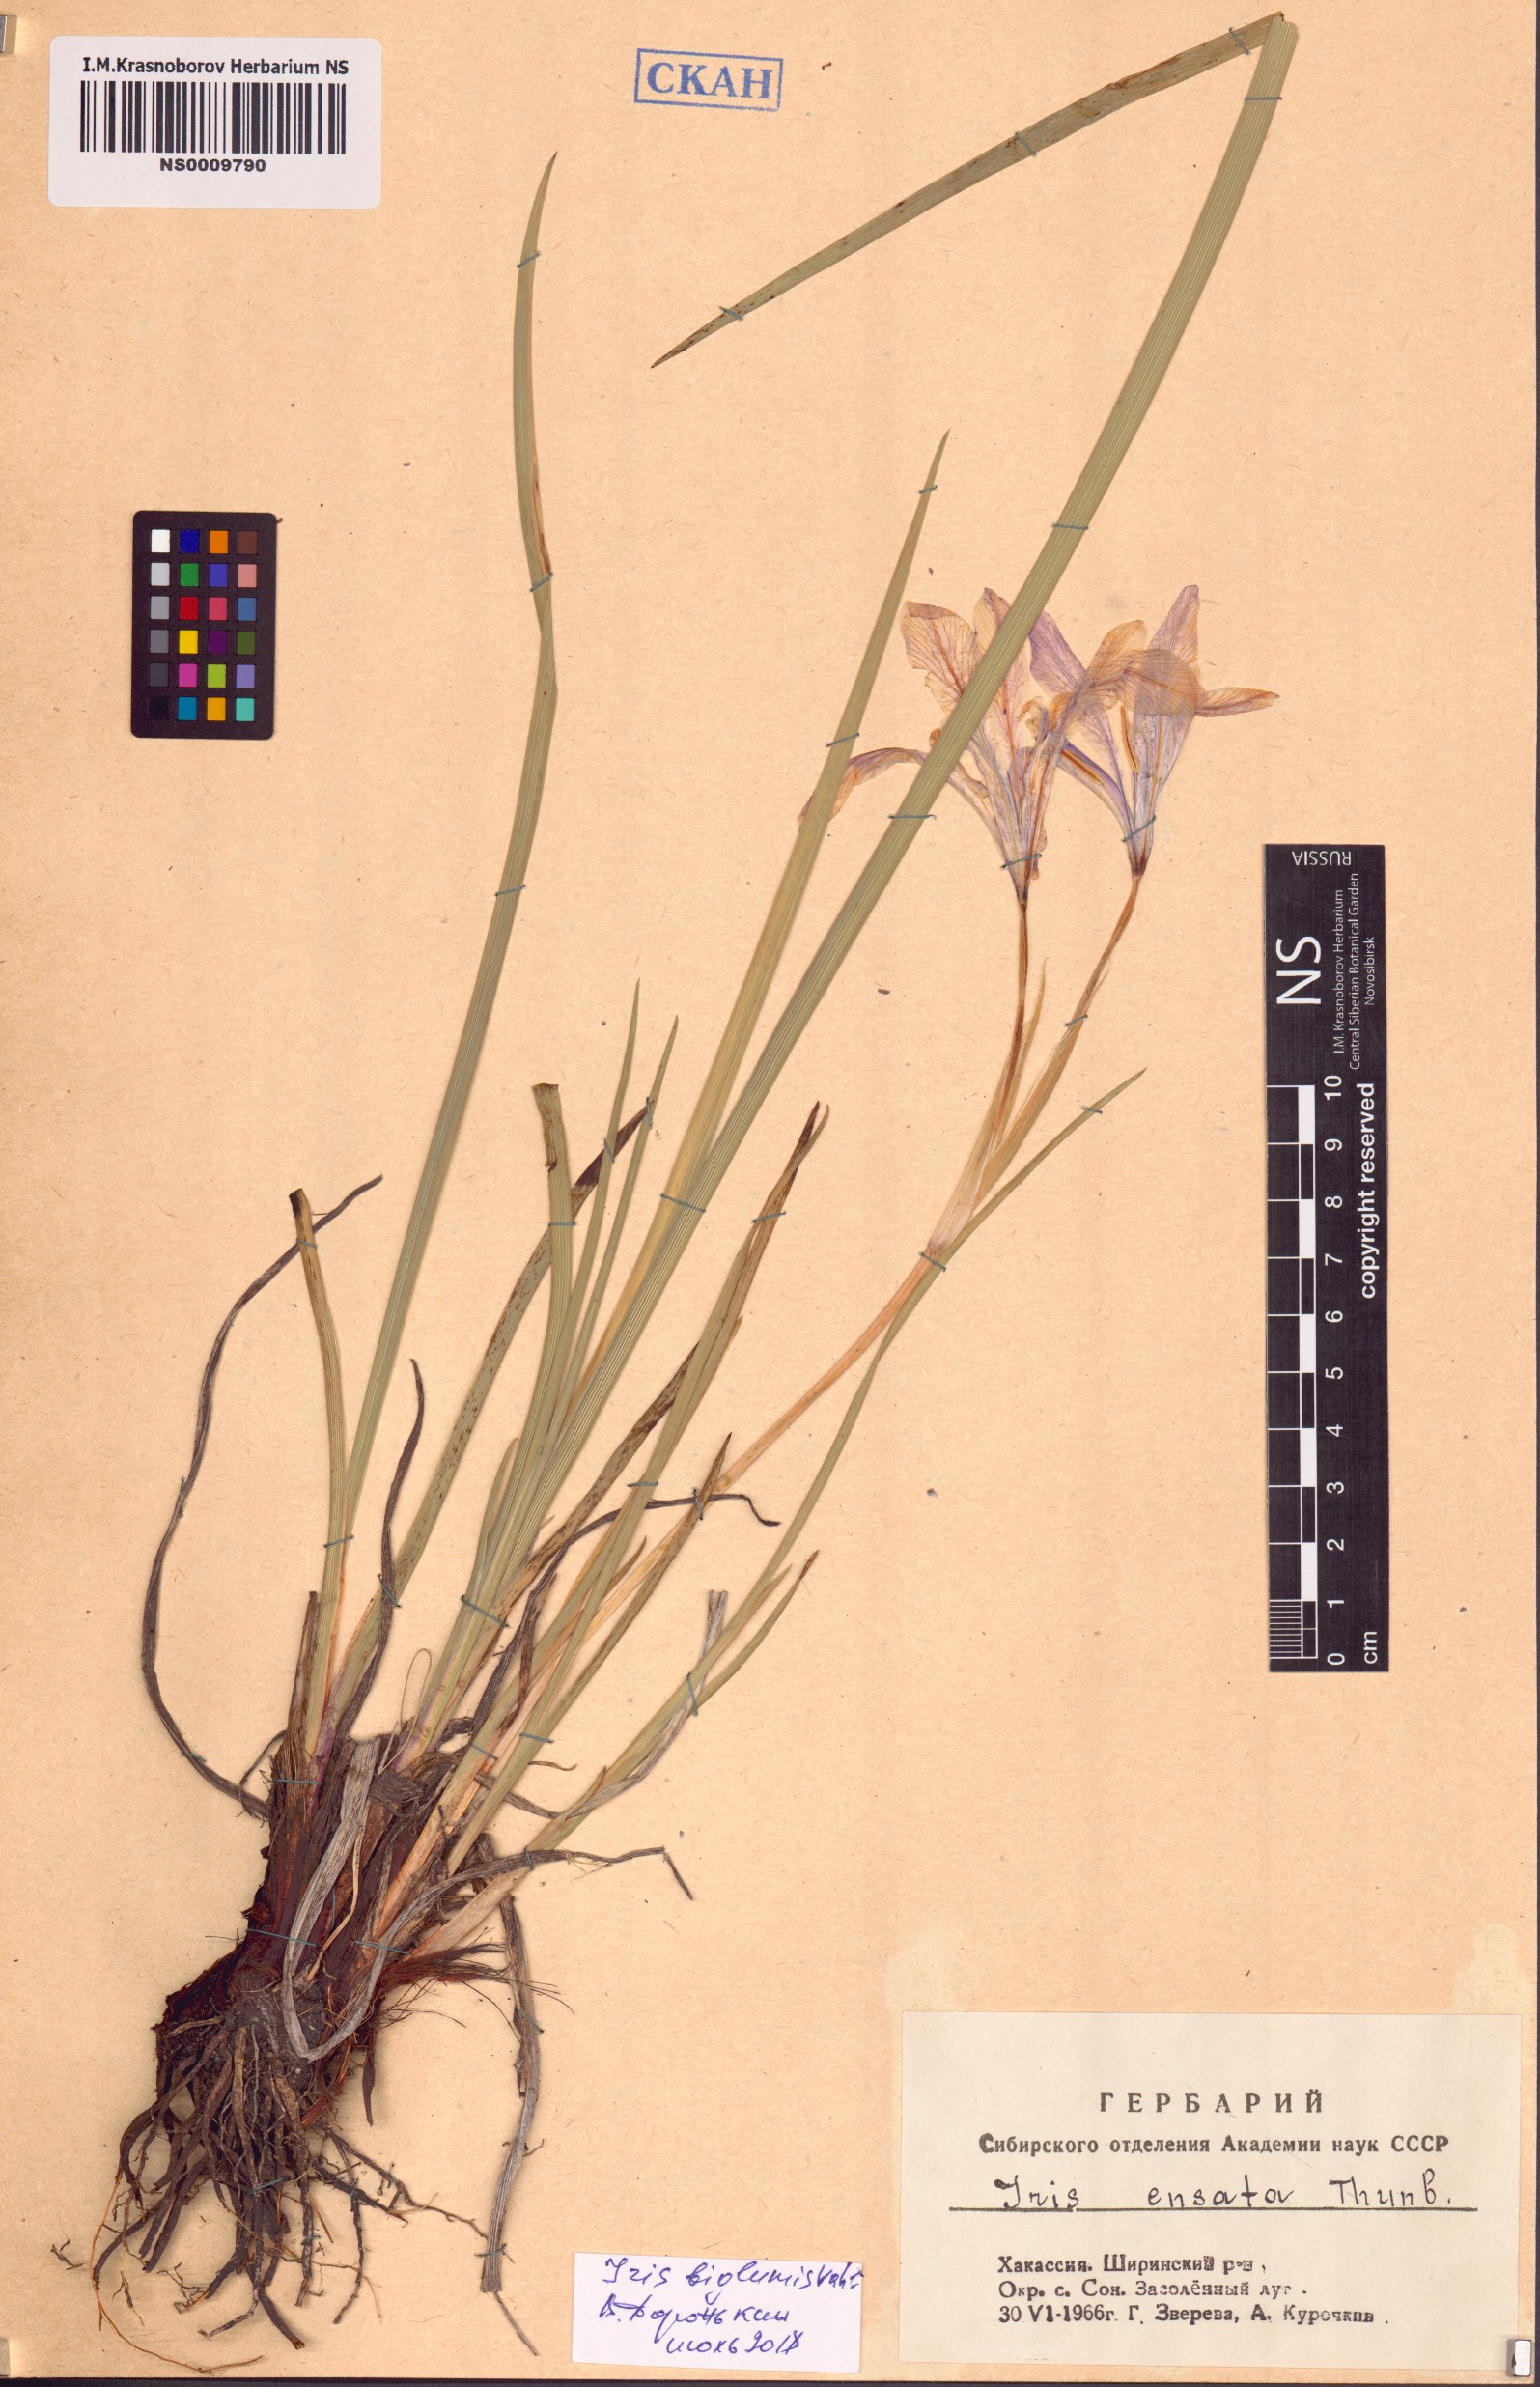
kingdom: Plantae
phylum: Tracheophyta
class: Liliopsida
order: Asparagales
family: Iridaceae
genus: Iris
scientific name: Iris lactea
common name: White-flower chinese iris
